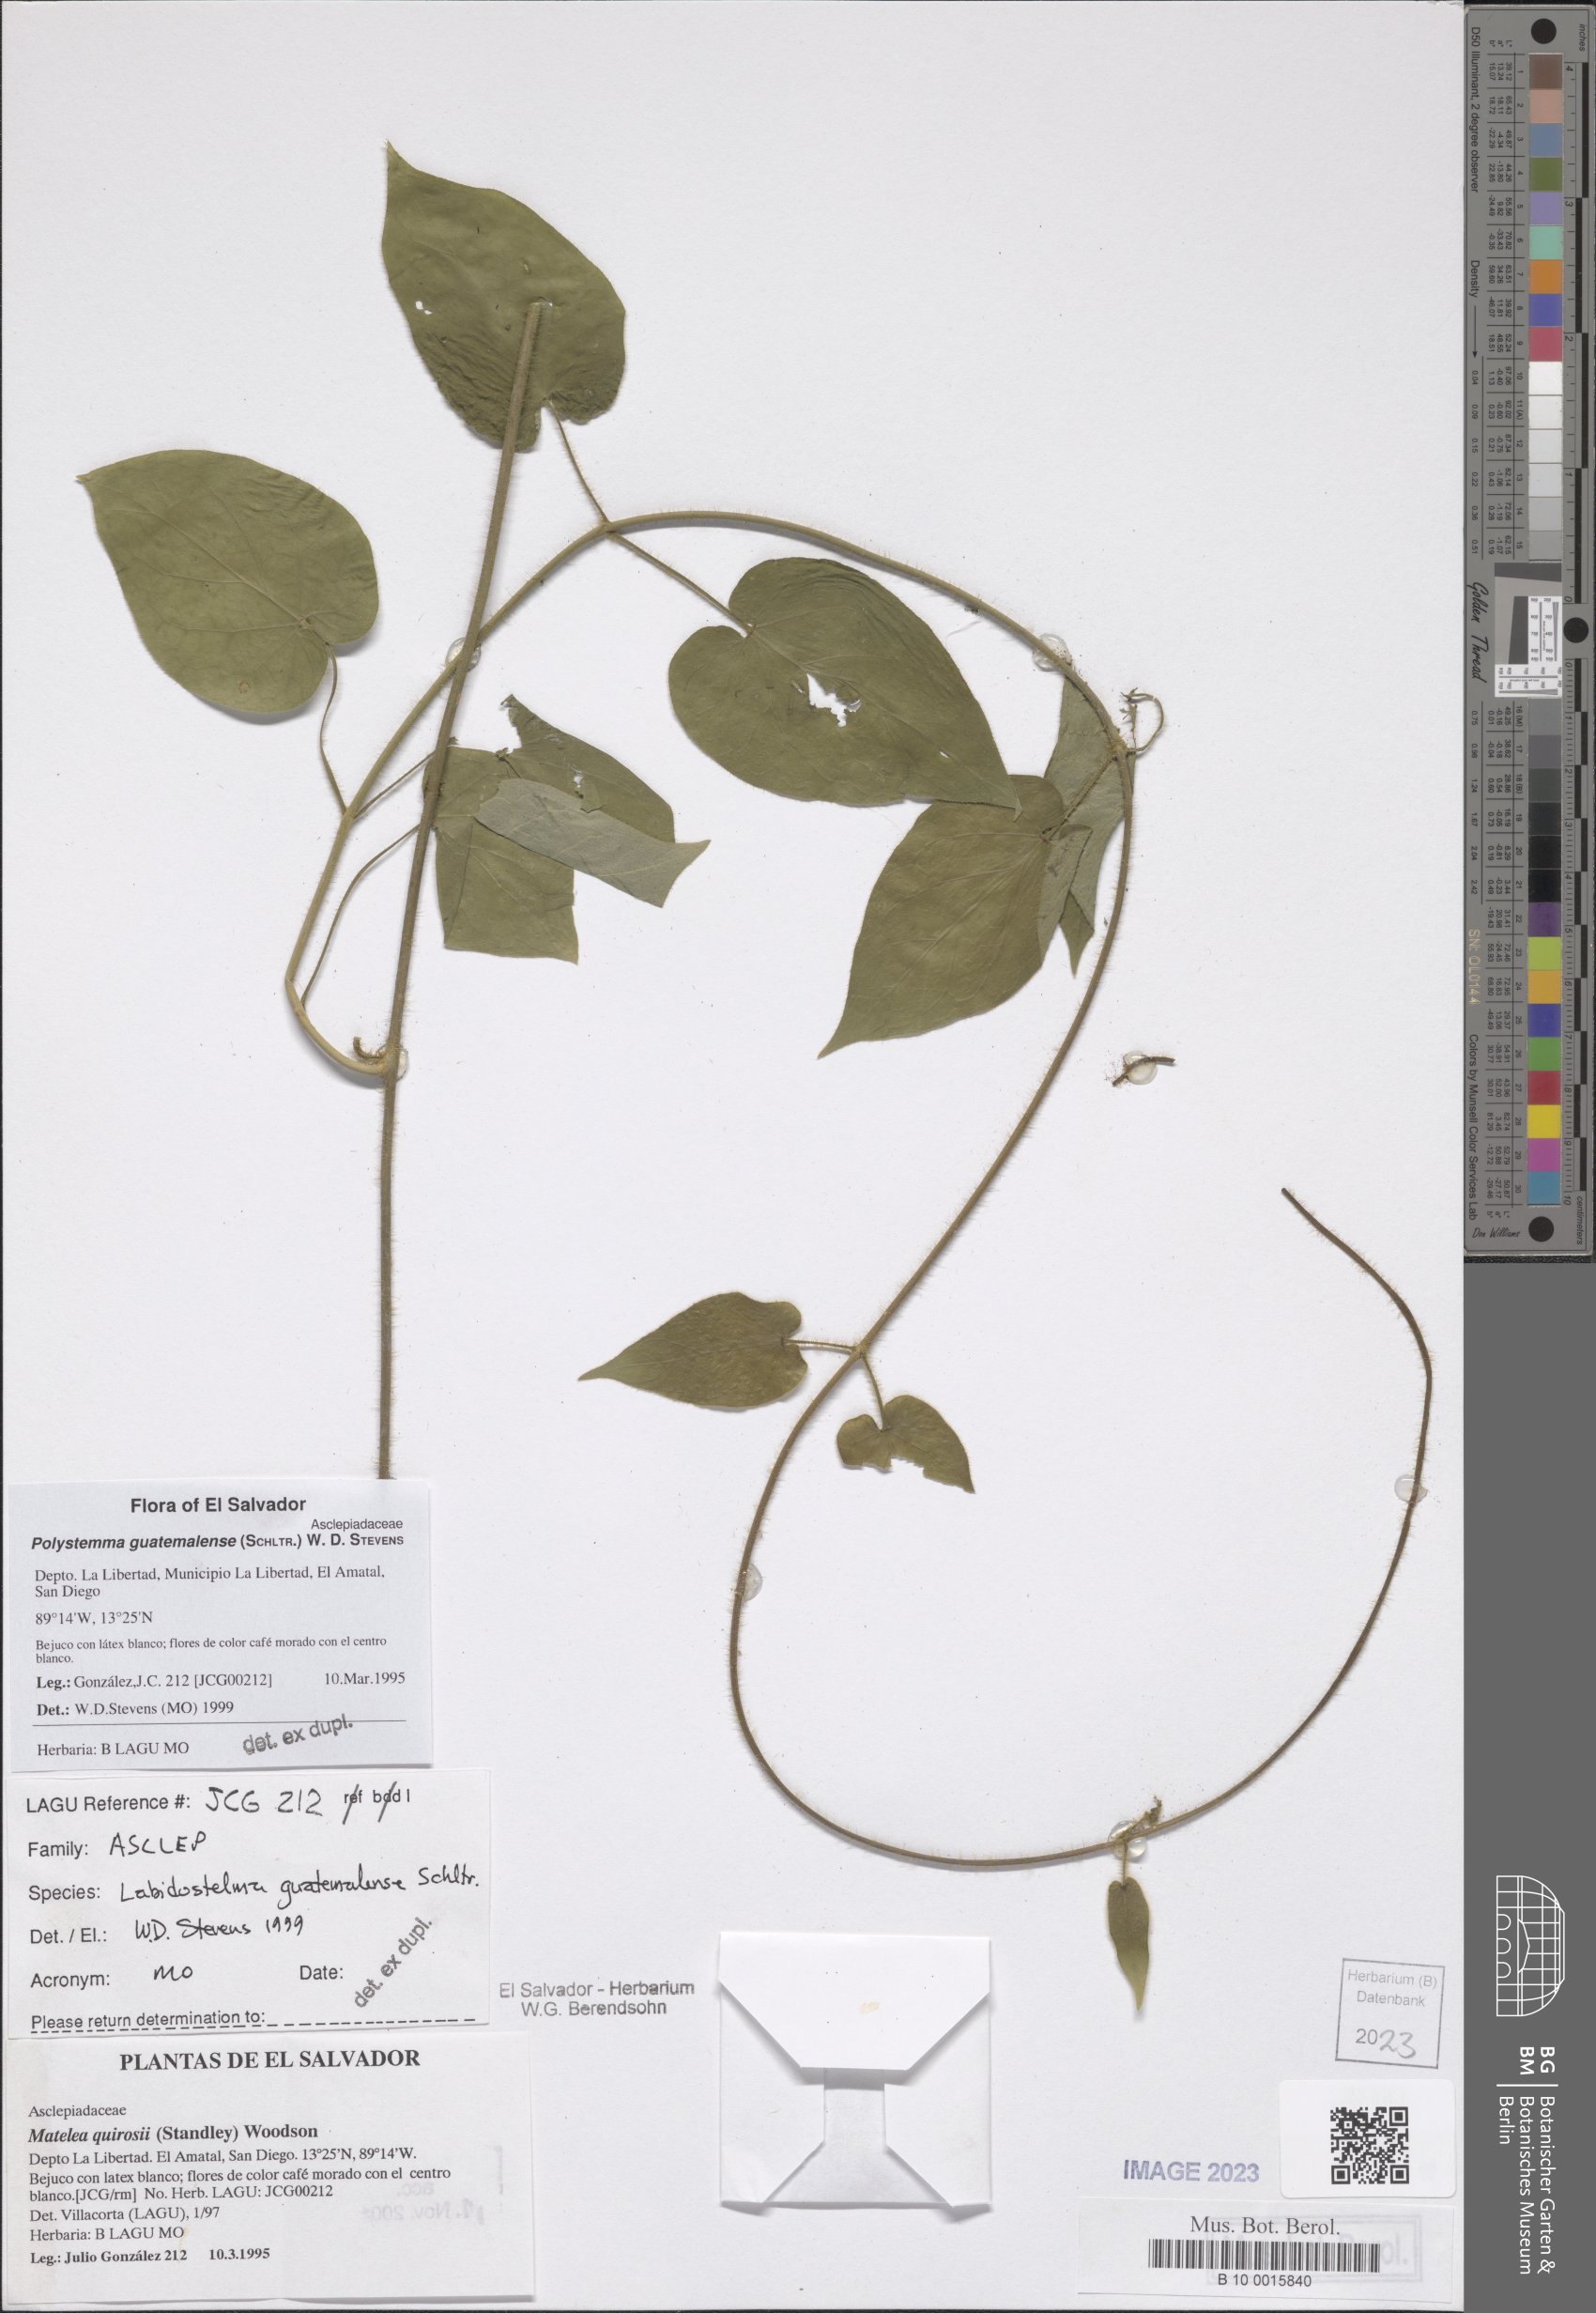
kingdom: Plantae
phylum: Tracheophyta
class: Magnoliopsida
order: Gentianales
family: Apocynaceae
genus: Polystemma
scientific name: Polystemma guatemalense
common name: Arborescente rattan
